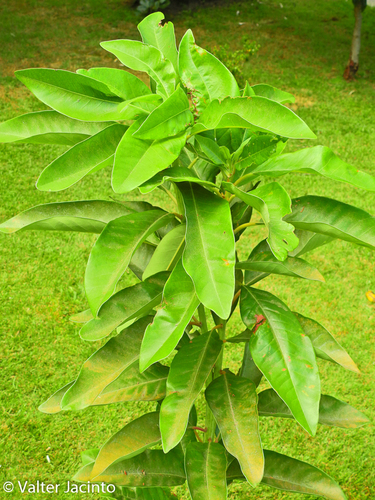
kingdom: Plantae
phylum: Tracheophyta
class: Magnoliopsida
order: Laurales
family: Lauraceae
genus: Persea
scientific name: Persea indica
